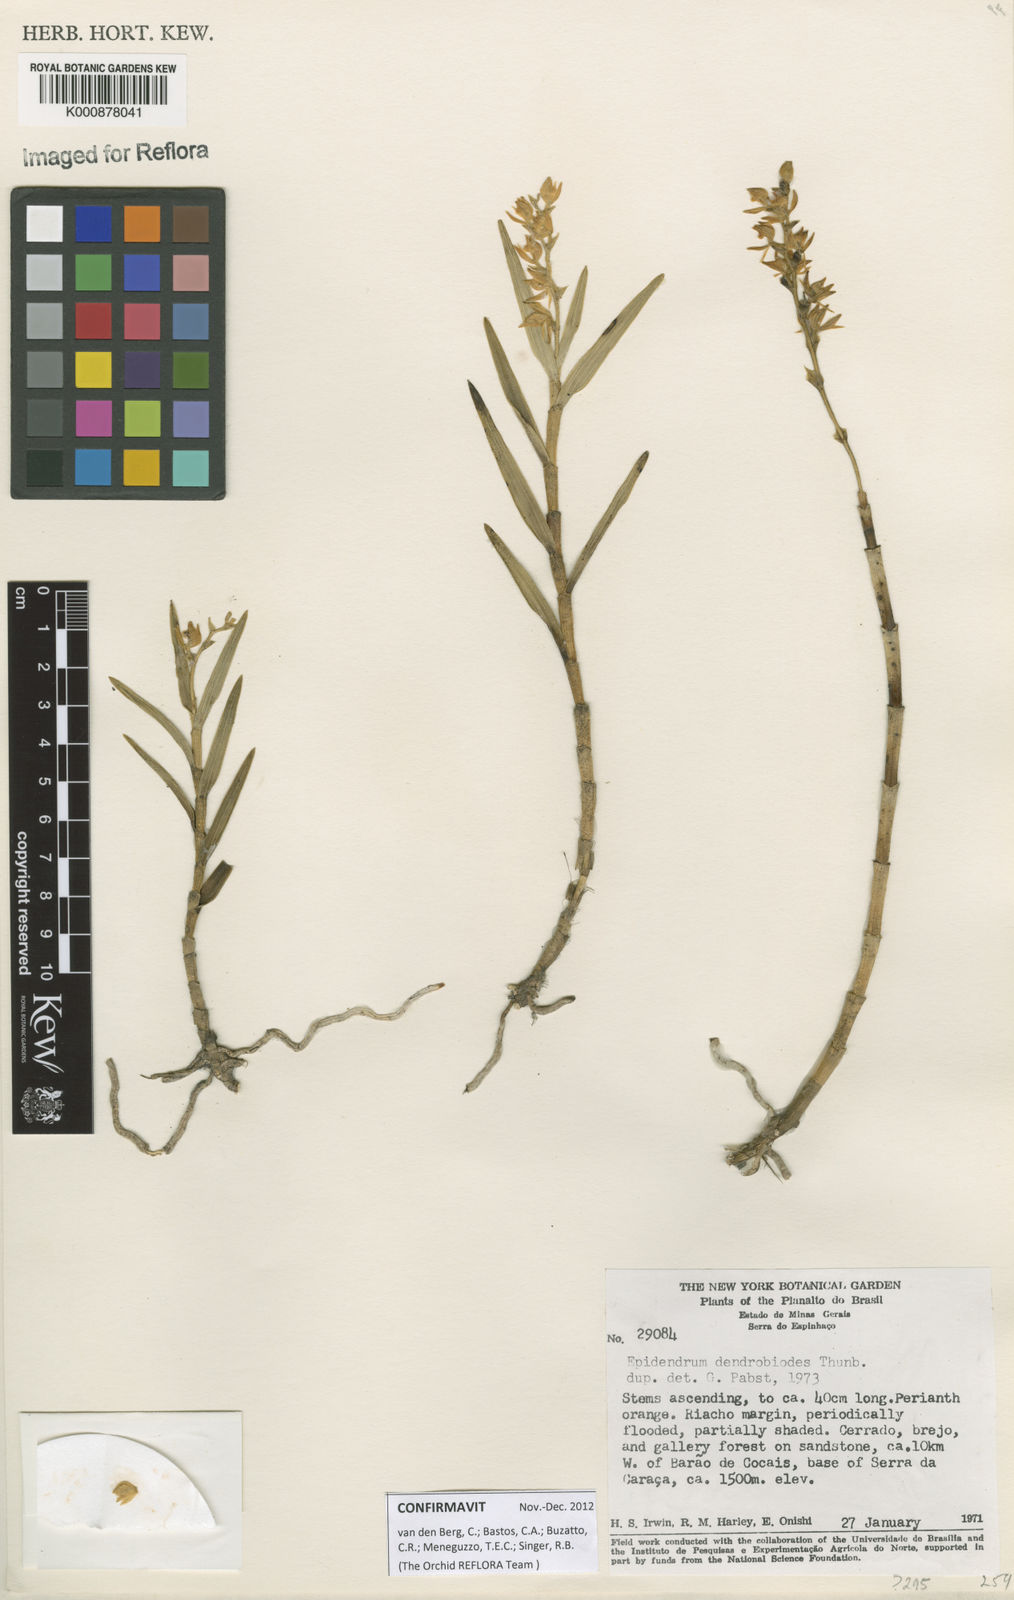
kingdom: Plantae
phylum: Tracheophyta
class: Liliopsida
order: Asparagales
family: Orchidaceae
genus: Epidendrum
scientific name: Epidendrum dendrobioides
